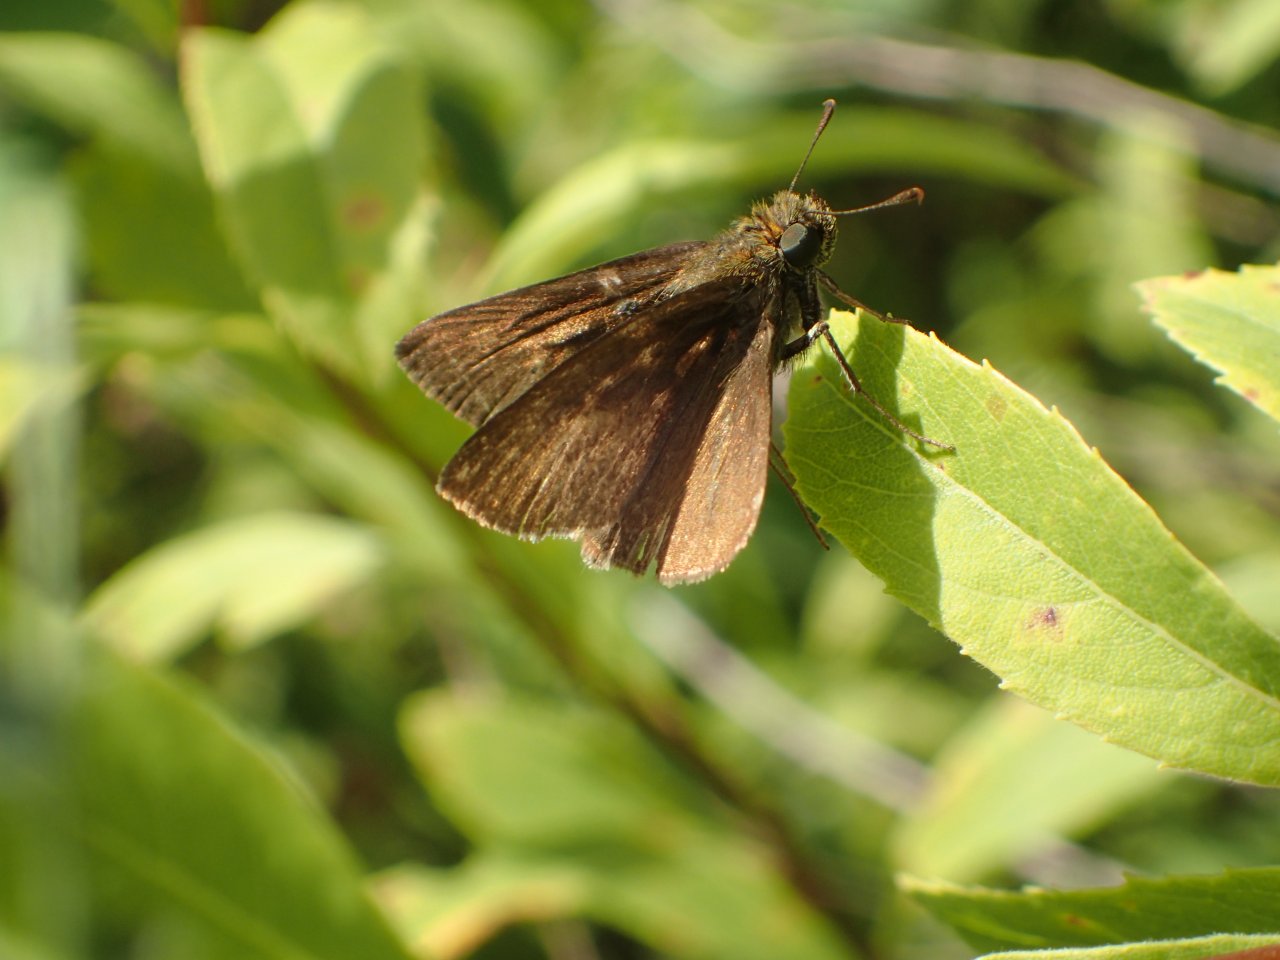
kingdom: Animalia
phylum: Arthropoda
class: Insecta
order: Lepidoptera
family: Hesperiidae
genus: Euphyes
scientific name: Euphyes vestris
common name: Dun Skipper
